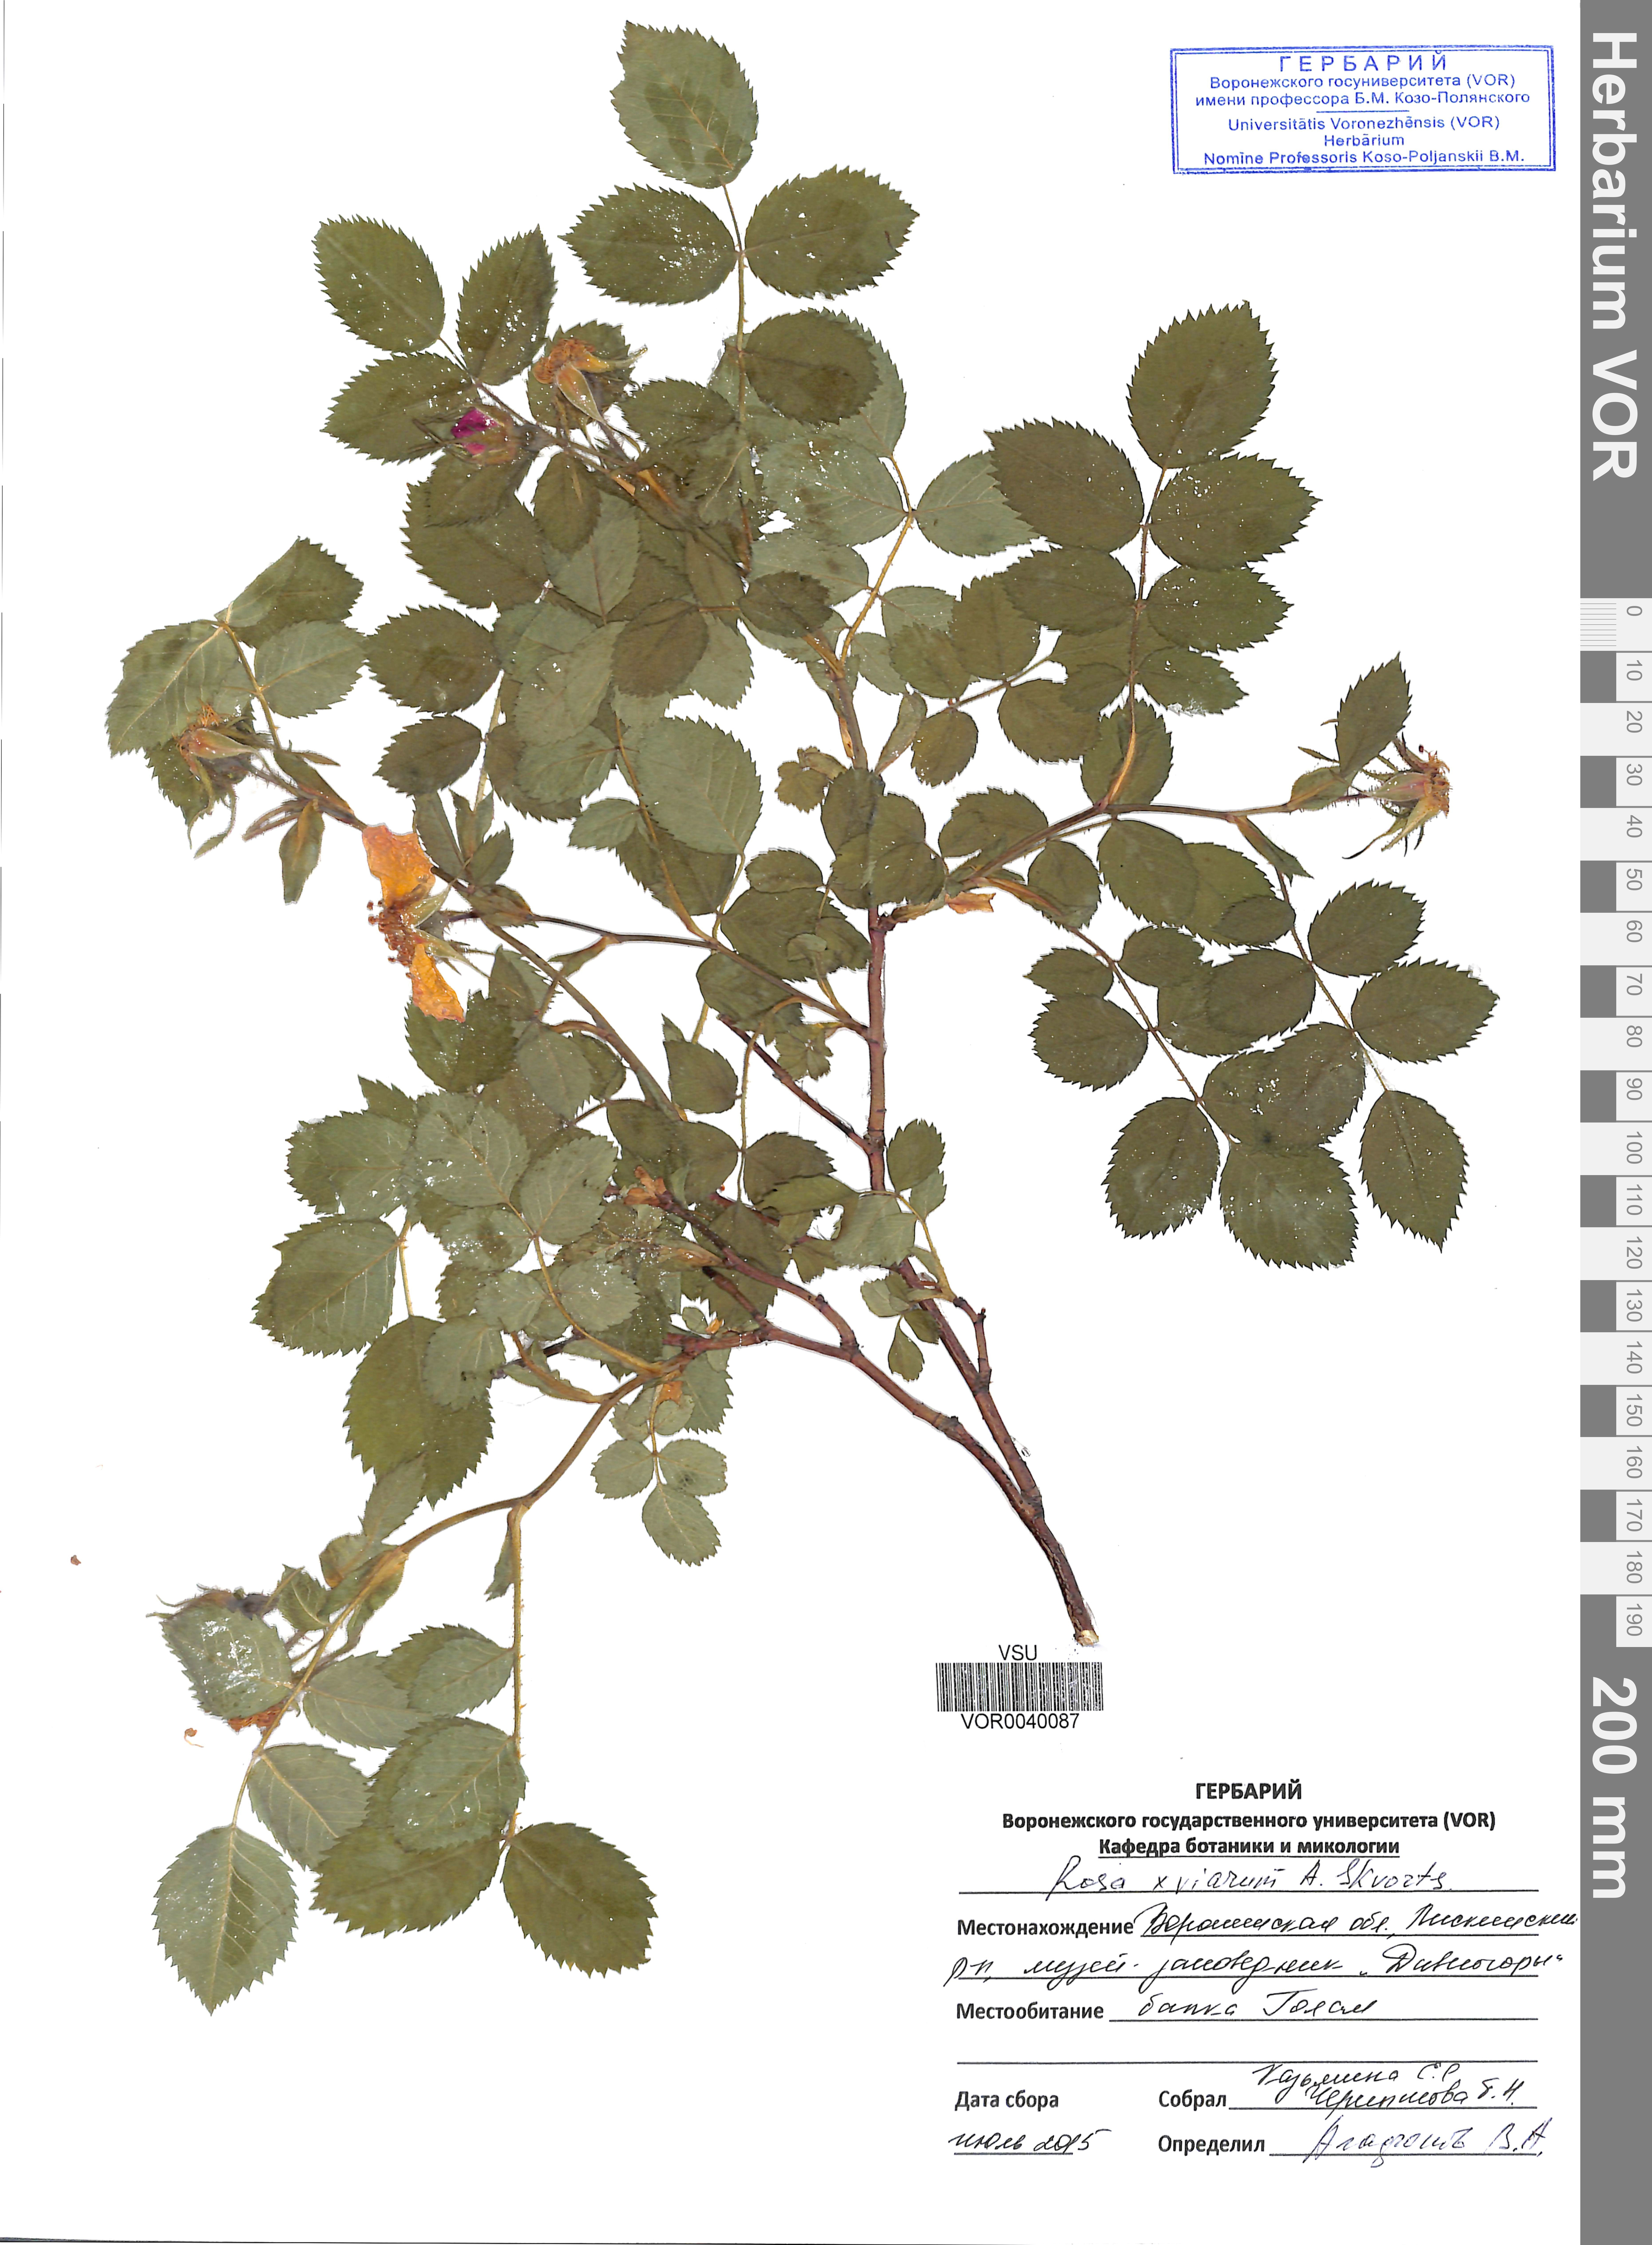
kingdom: Plantae
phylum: Tracheophyta
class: Magnoliopsida
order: Rosales
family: Rosaceae
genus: Rosa
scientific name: Rosa viarum
